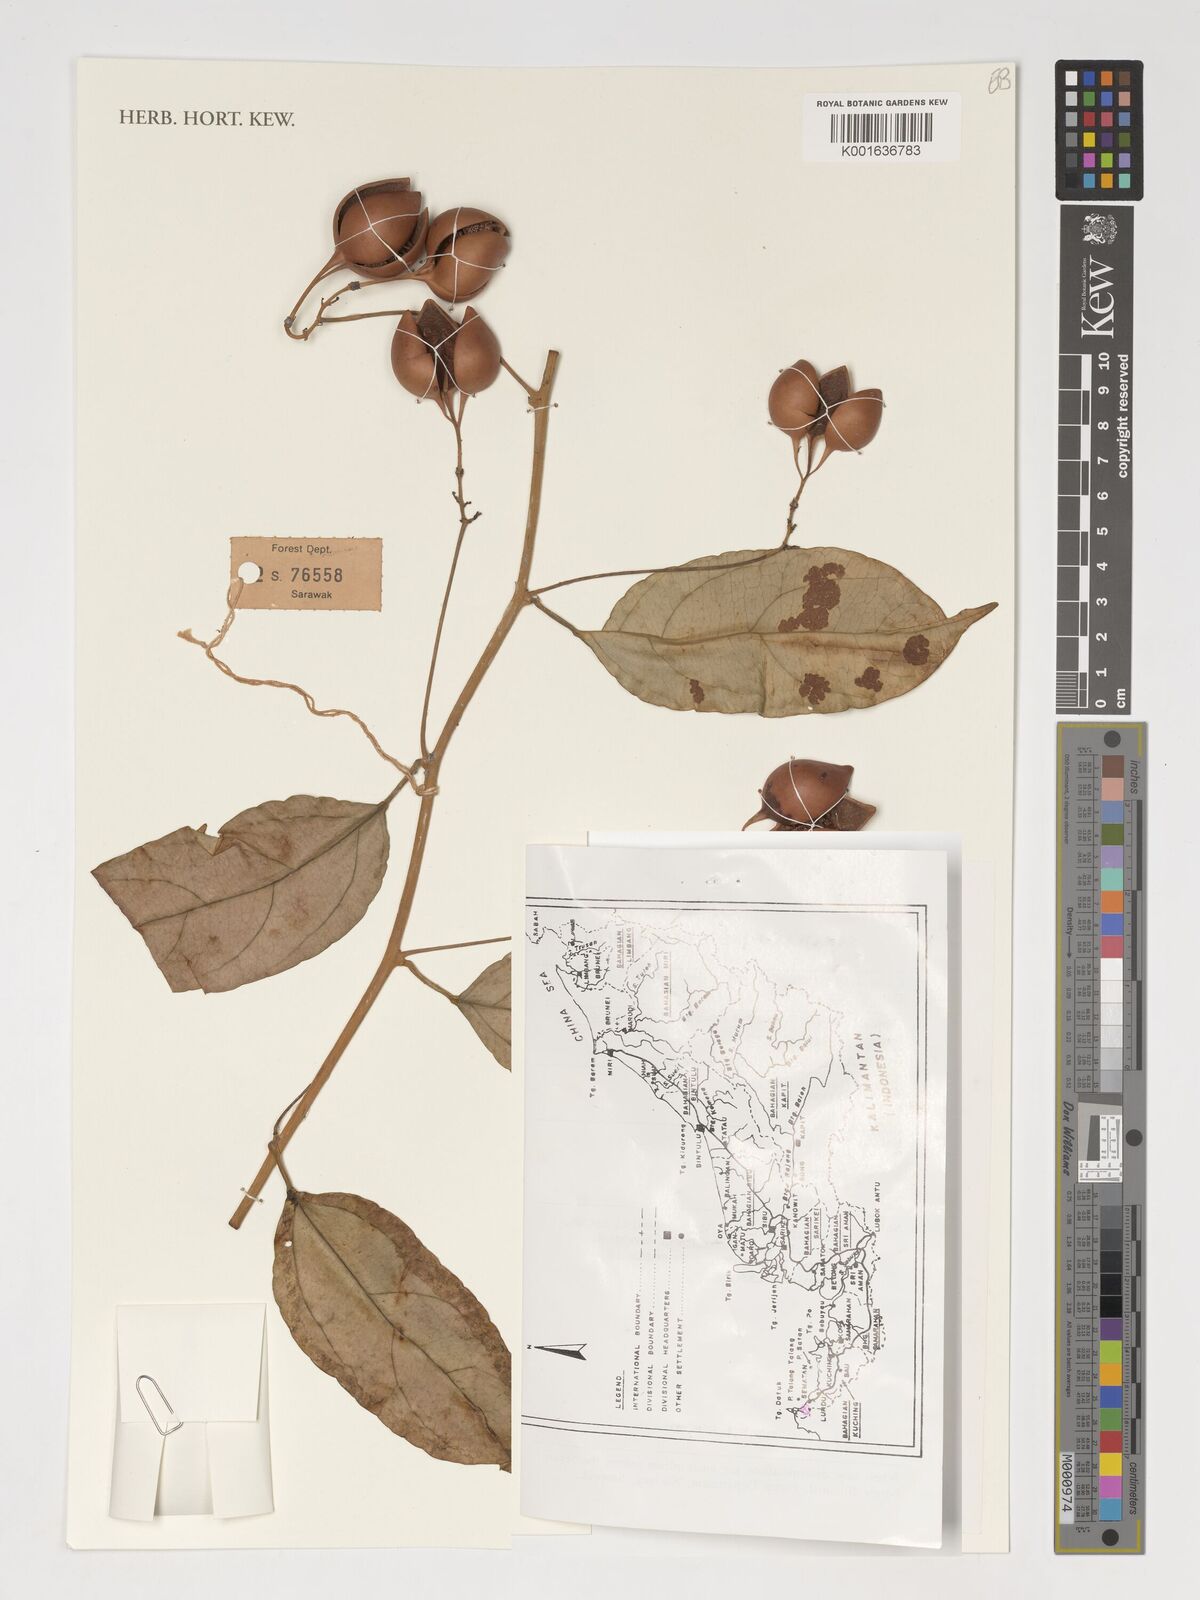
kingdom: Plantae
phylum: Tracheophyta
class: Magnoliopsida
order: Malpighiales
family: Passifloraceae
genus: Adenia
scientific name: Adenia
